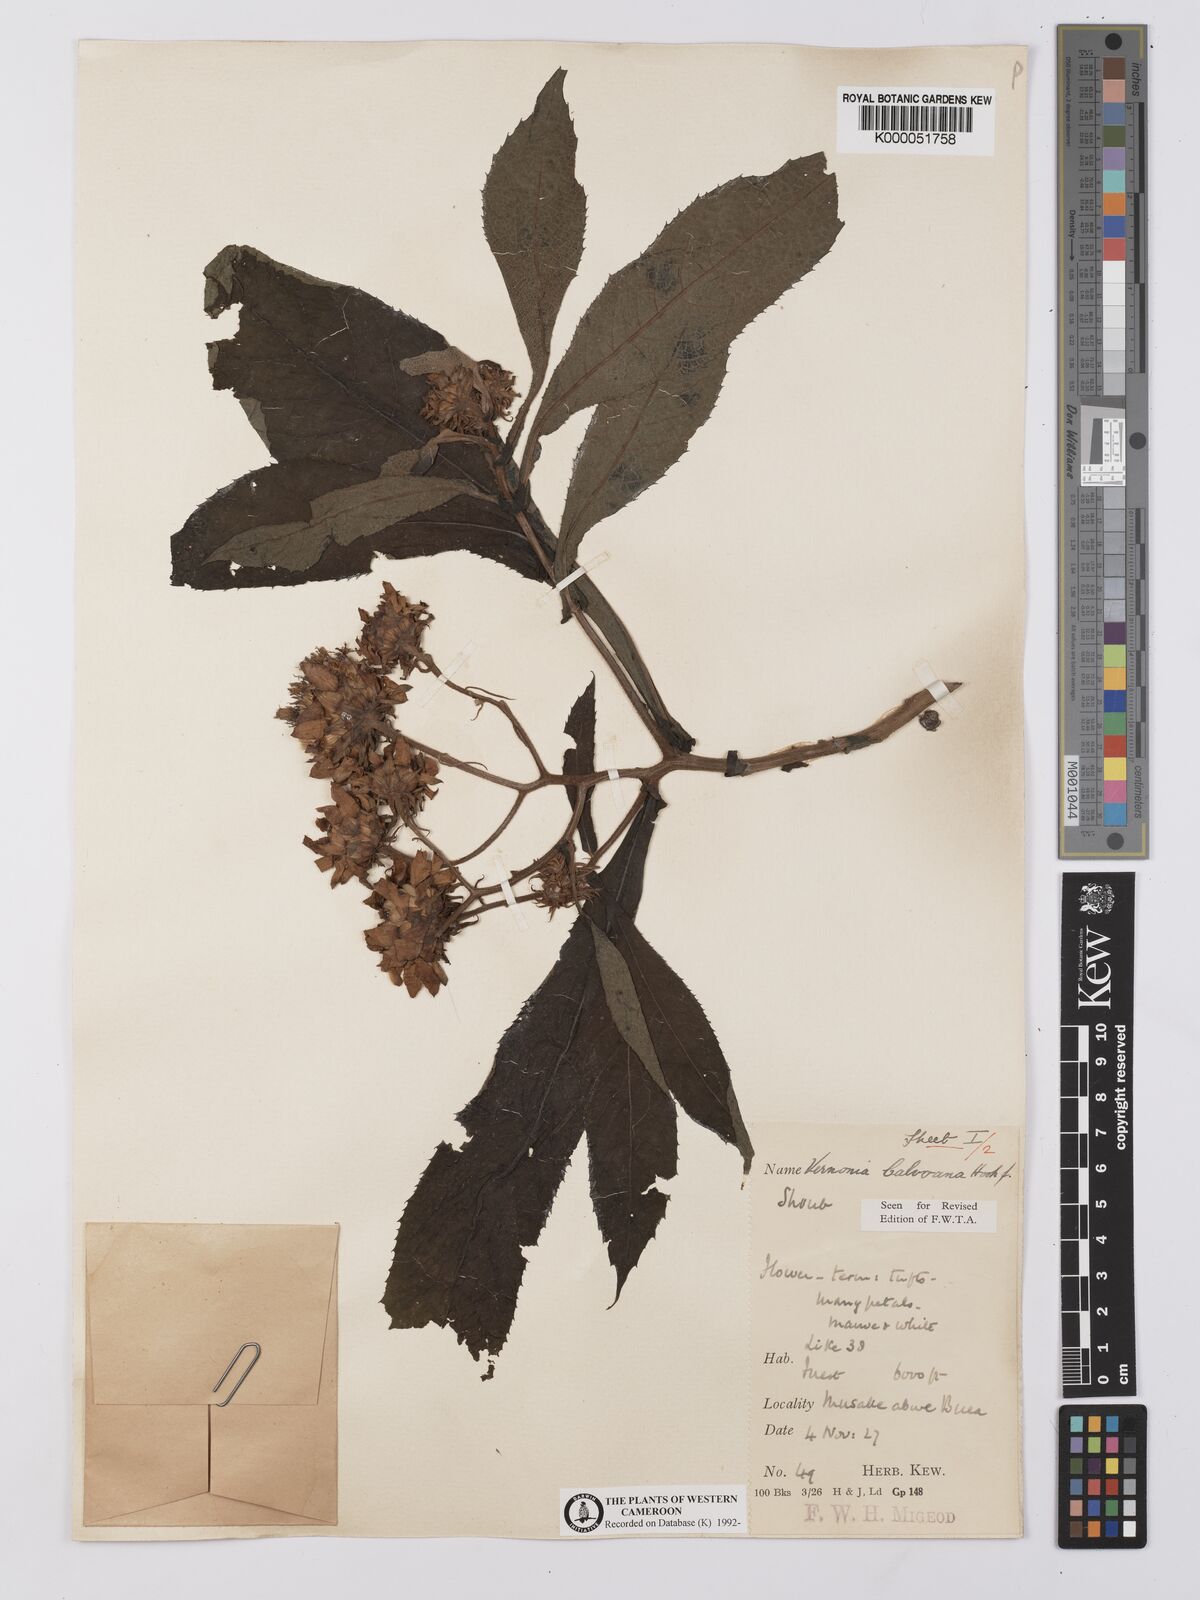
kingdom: Plantae
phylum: Tracheophyta
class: Magnoliopsida
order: Asterales
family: Asteraceae
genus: Baccharoides
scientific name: Baccharoides hymenolepis
